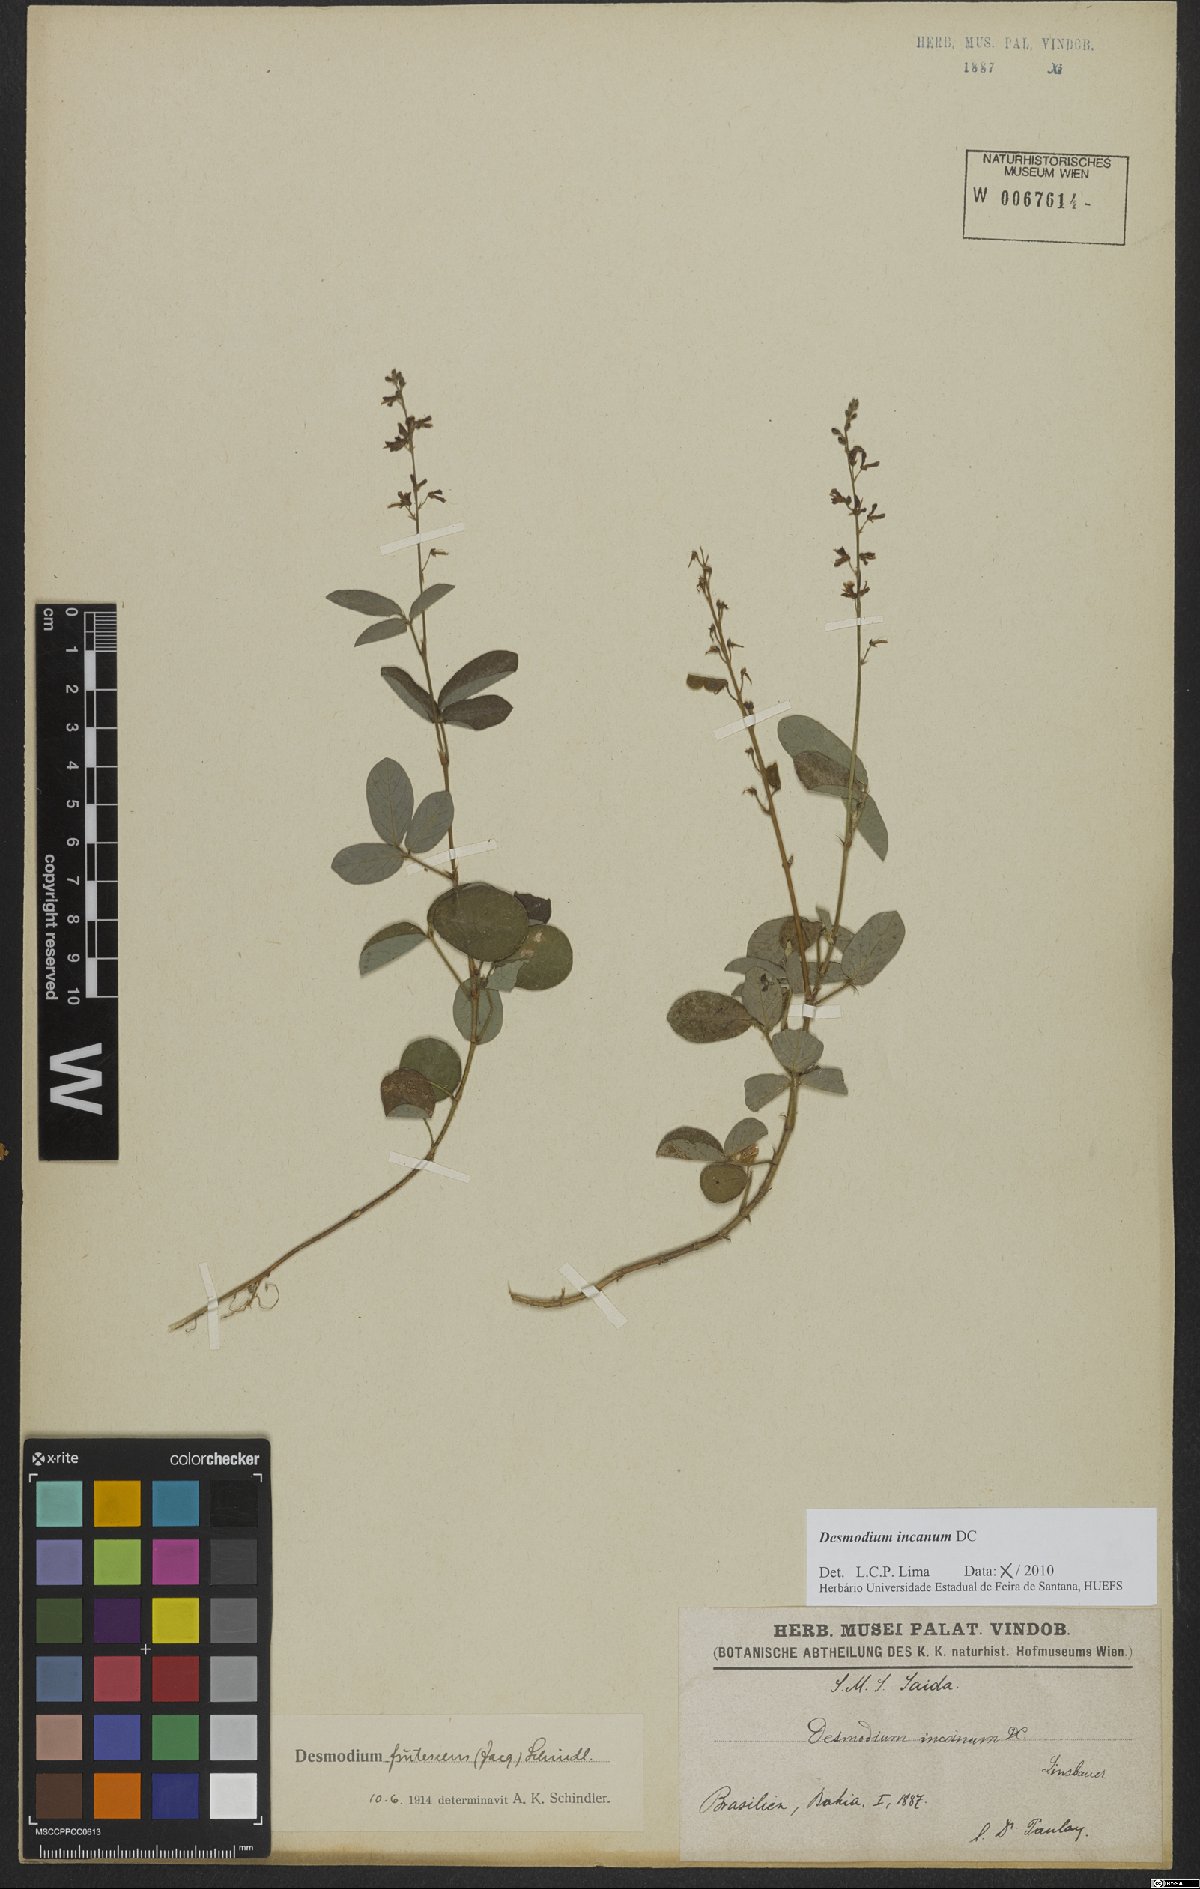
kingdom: Plantae
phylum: Tracheophyta
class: Magnoliopsida
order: Fabales
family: Fabaceae
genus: Desmodium
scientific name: Desmodium incanum
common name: Tickclover
